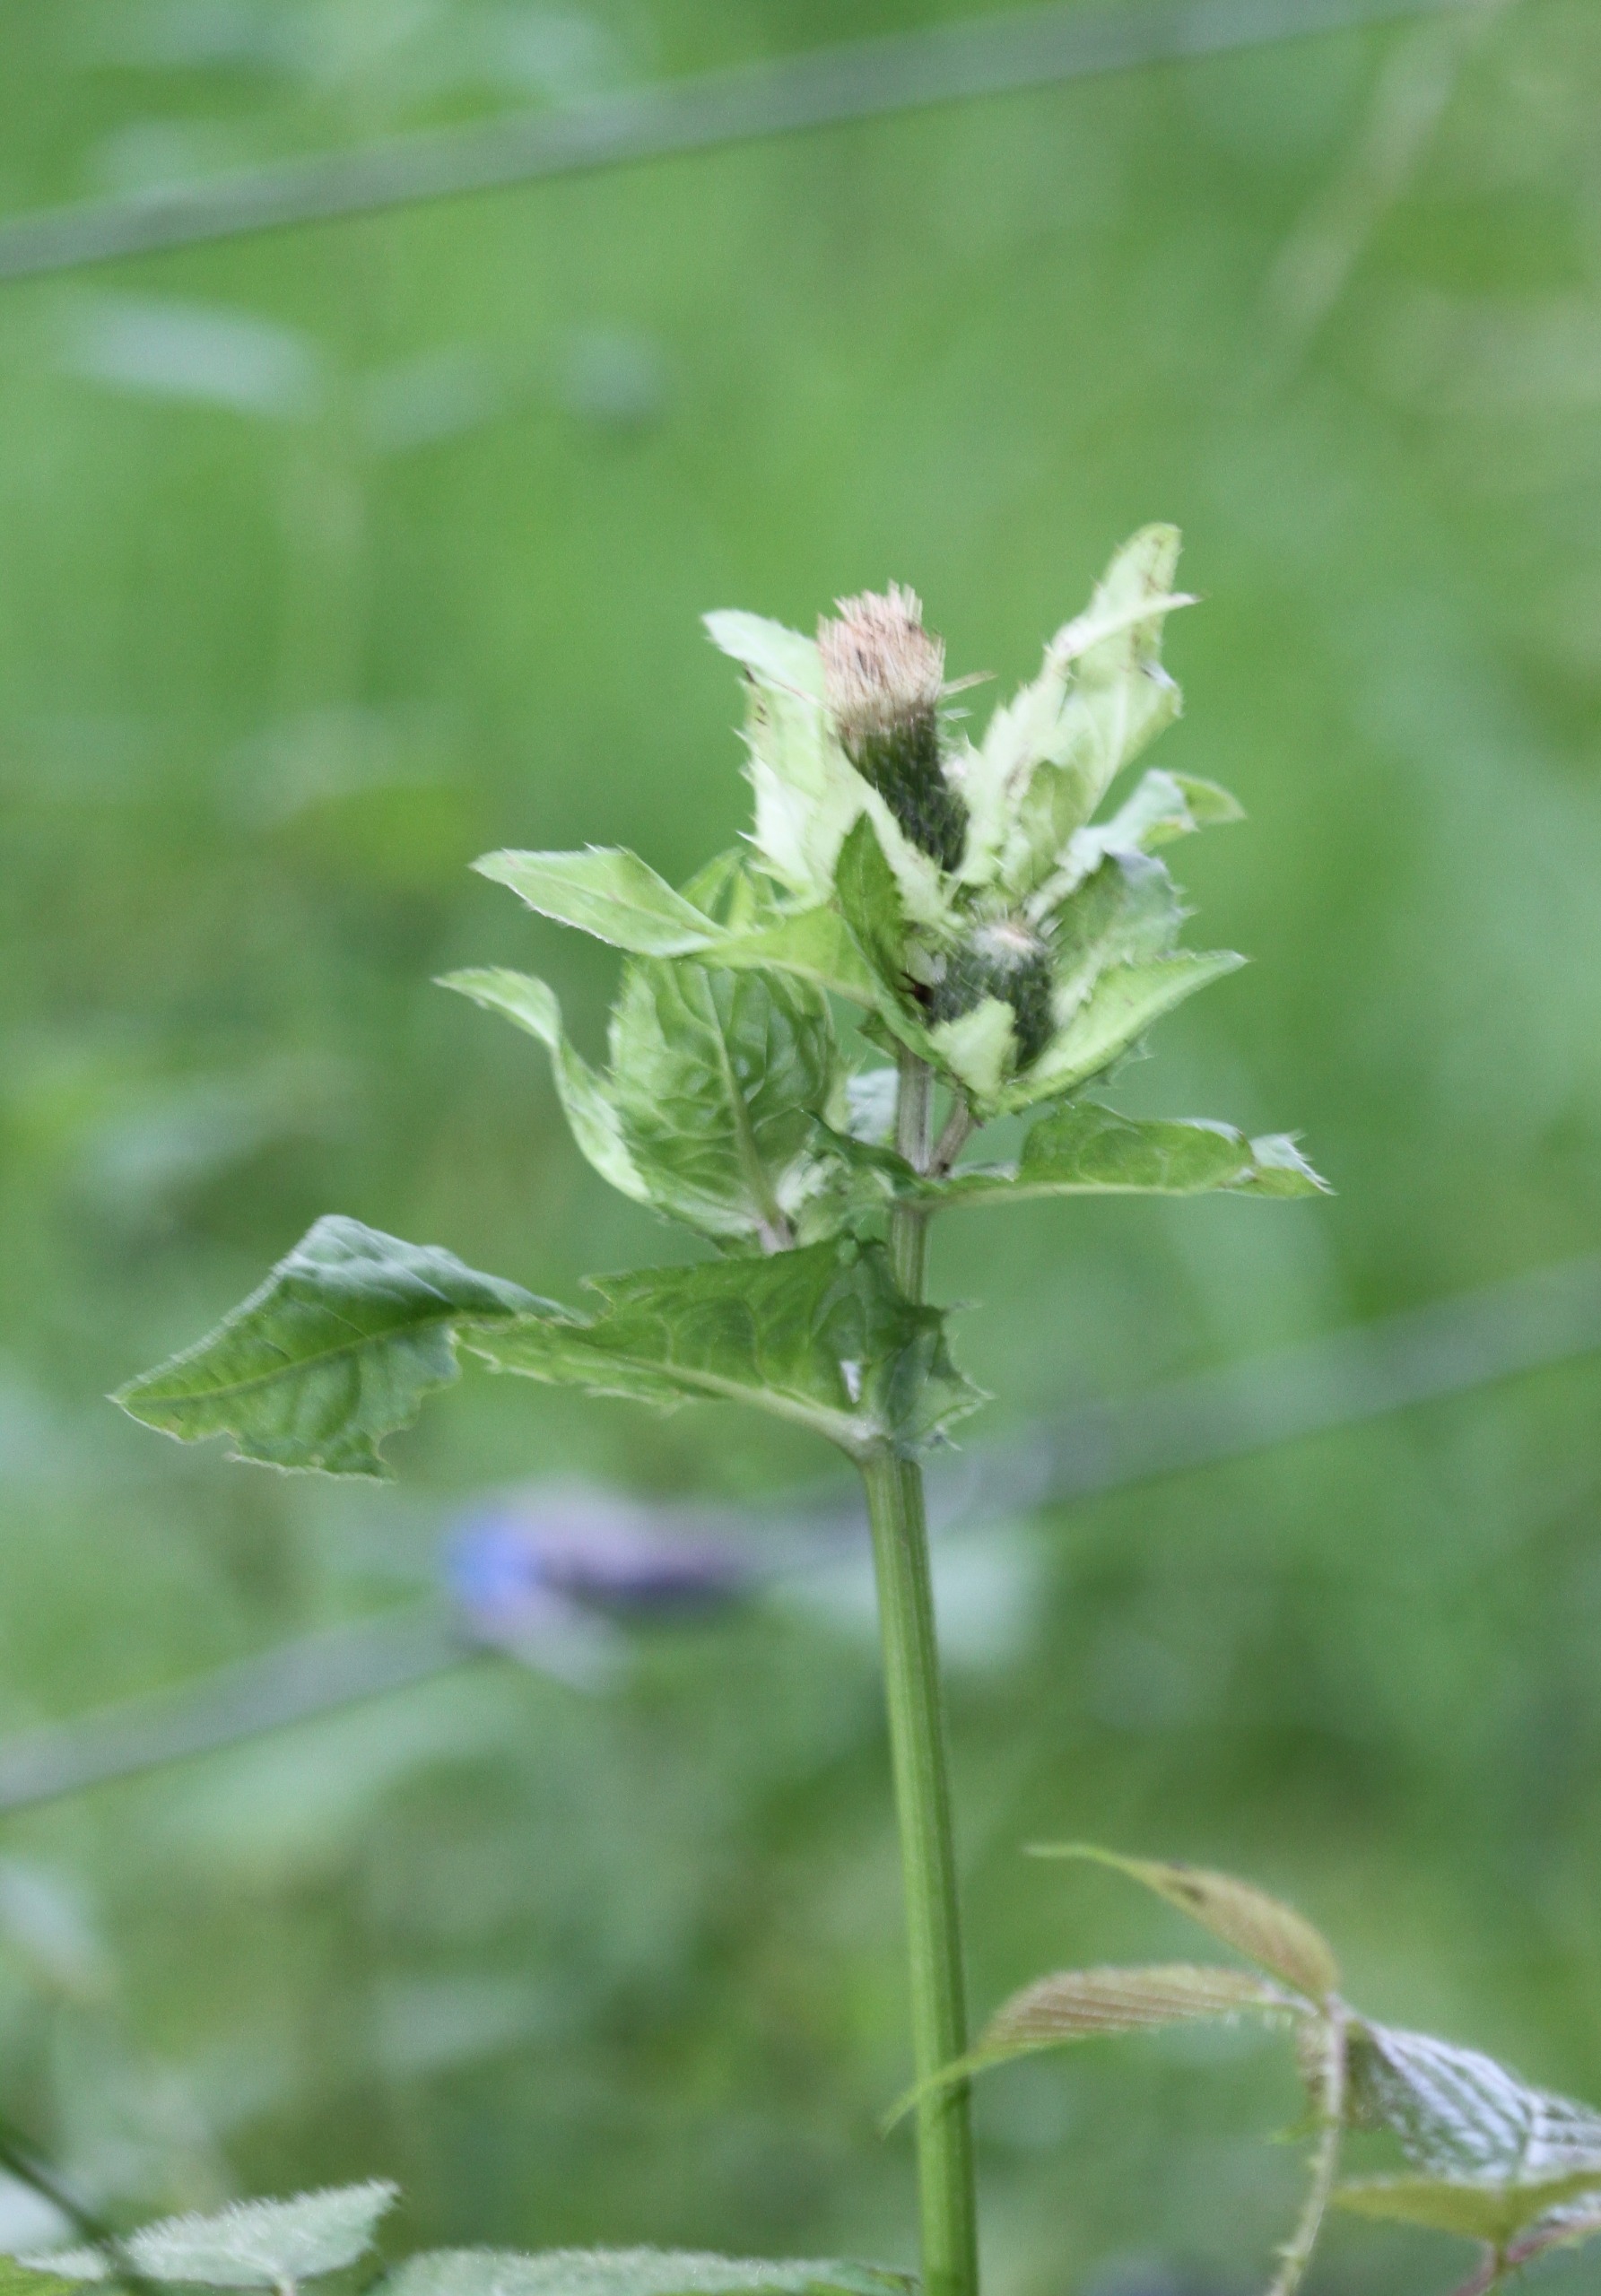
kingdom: Plantae
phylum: Tracheophyta
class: Magnoliopsida
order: Asterales
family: Asteraceae
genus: Cirsium
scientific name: Cirsium oleraceum
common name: Kål-tidsel
